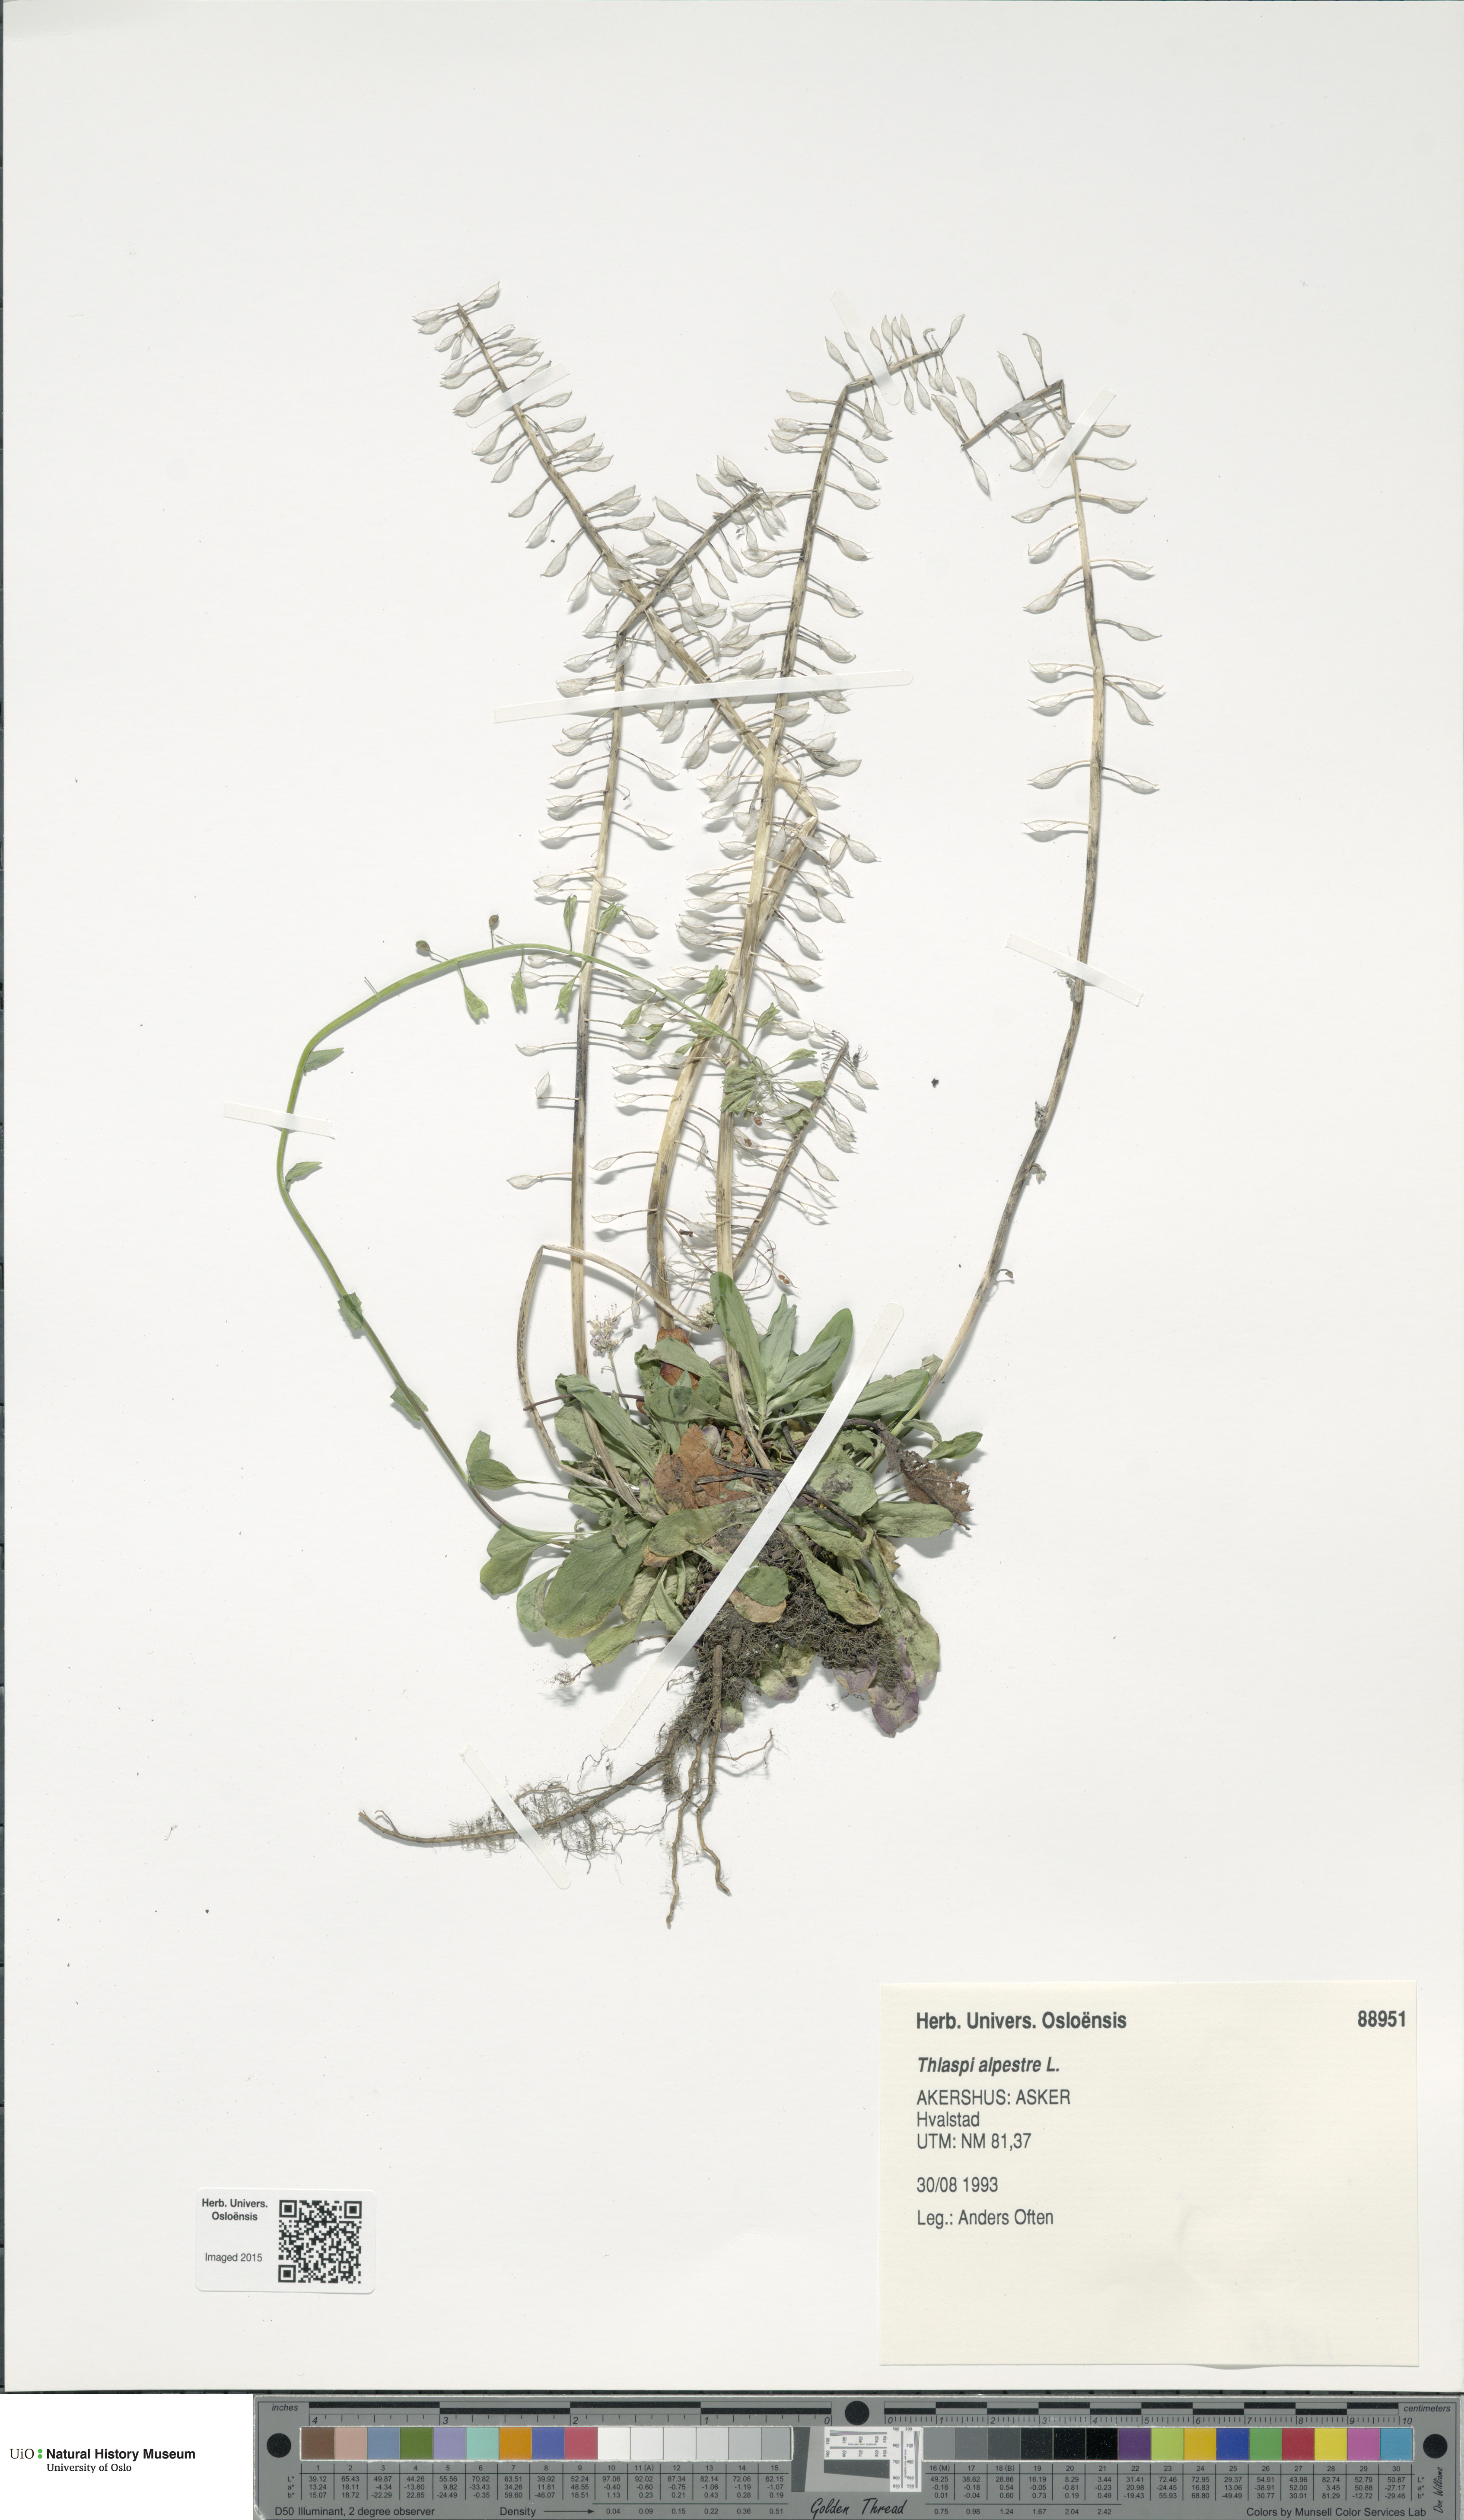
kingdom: Plantae
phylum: Tracheophyta
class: Magnoliopsida
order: Brassicales
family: Brassicaceae
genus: Noccaea
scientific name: Noccaea caerulescens
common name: Alpine pennycress
